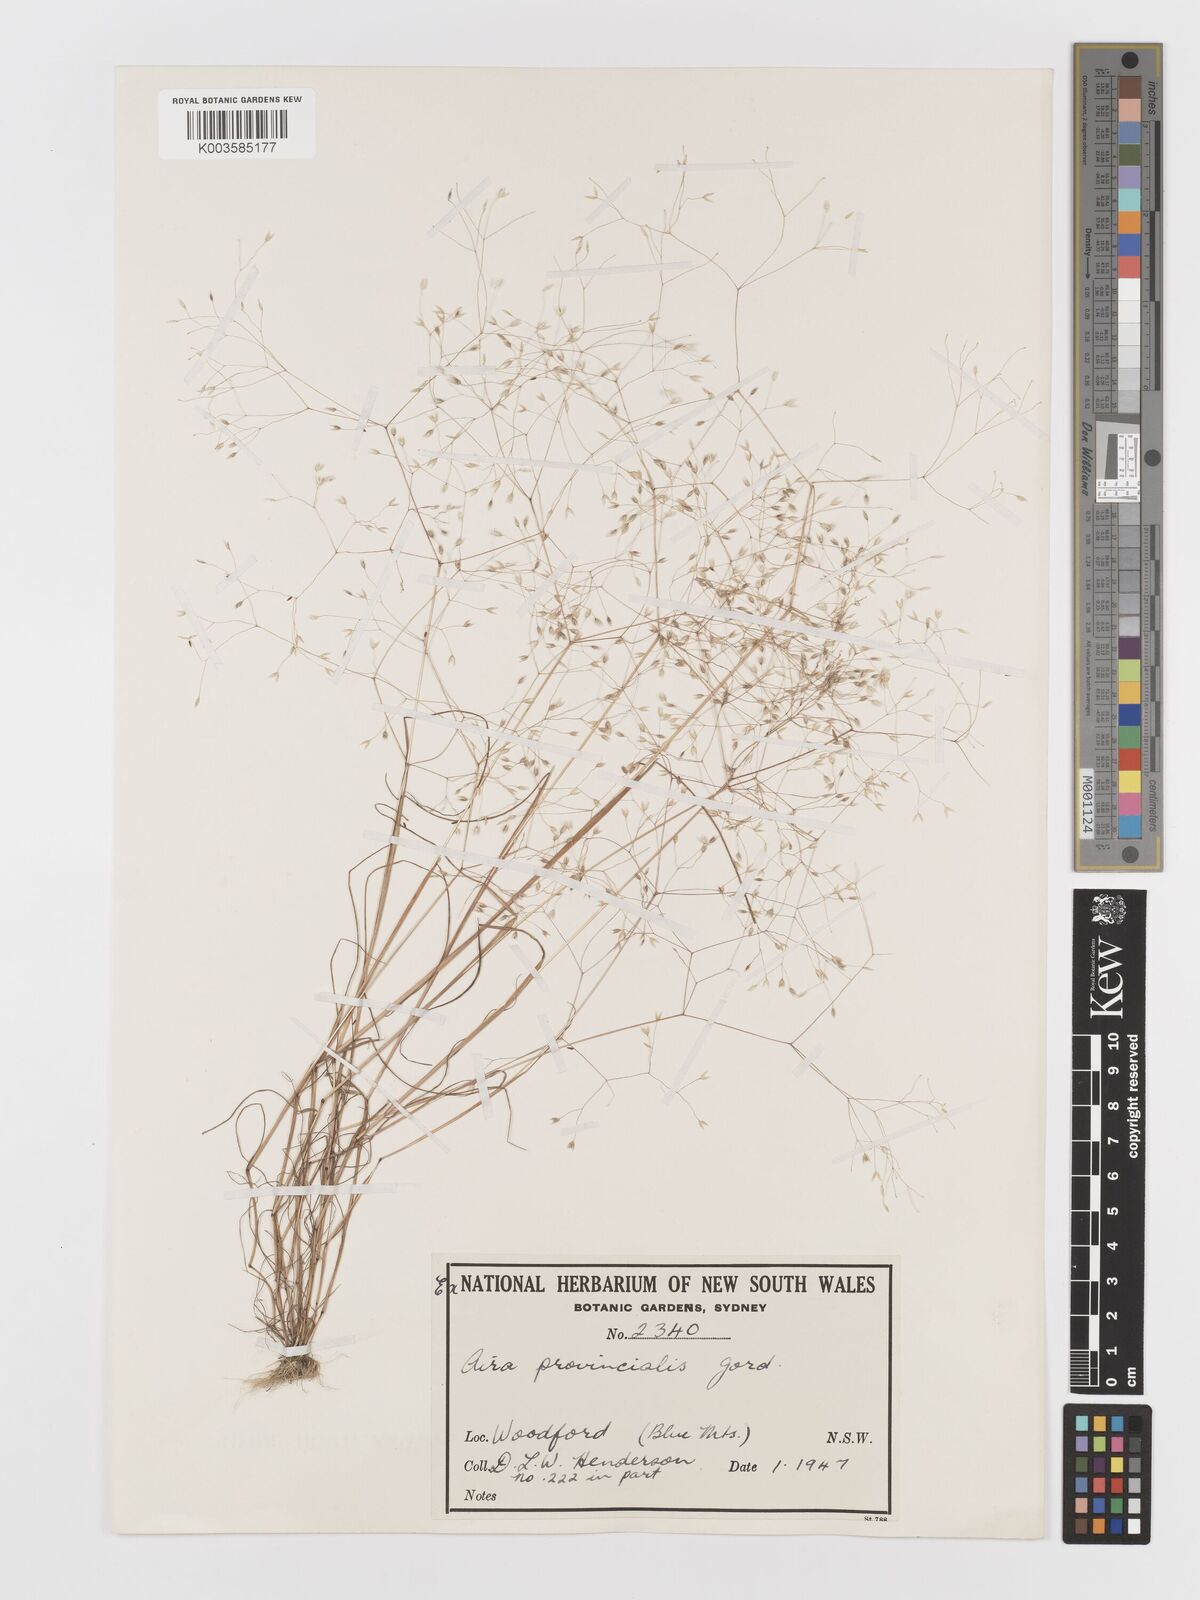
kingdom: Plantae
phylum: Tracheophyta
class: Liliopsida
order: Poales
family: Poaceae
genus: Aira
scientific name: Aira provincialis
